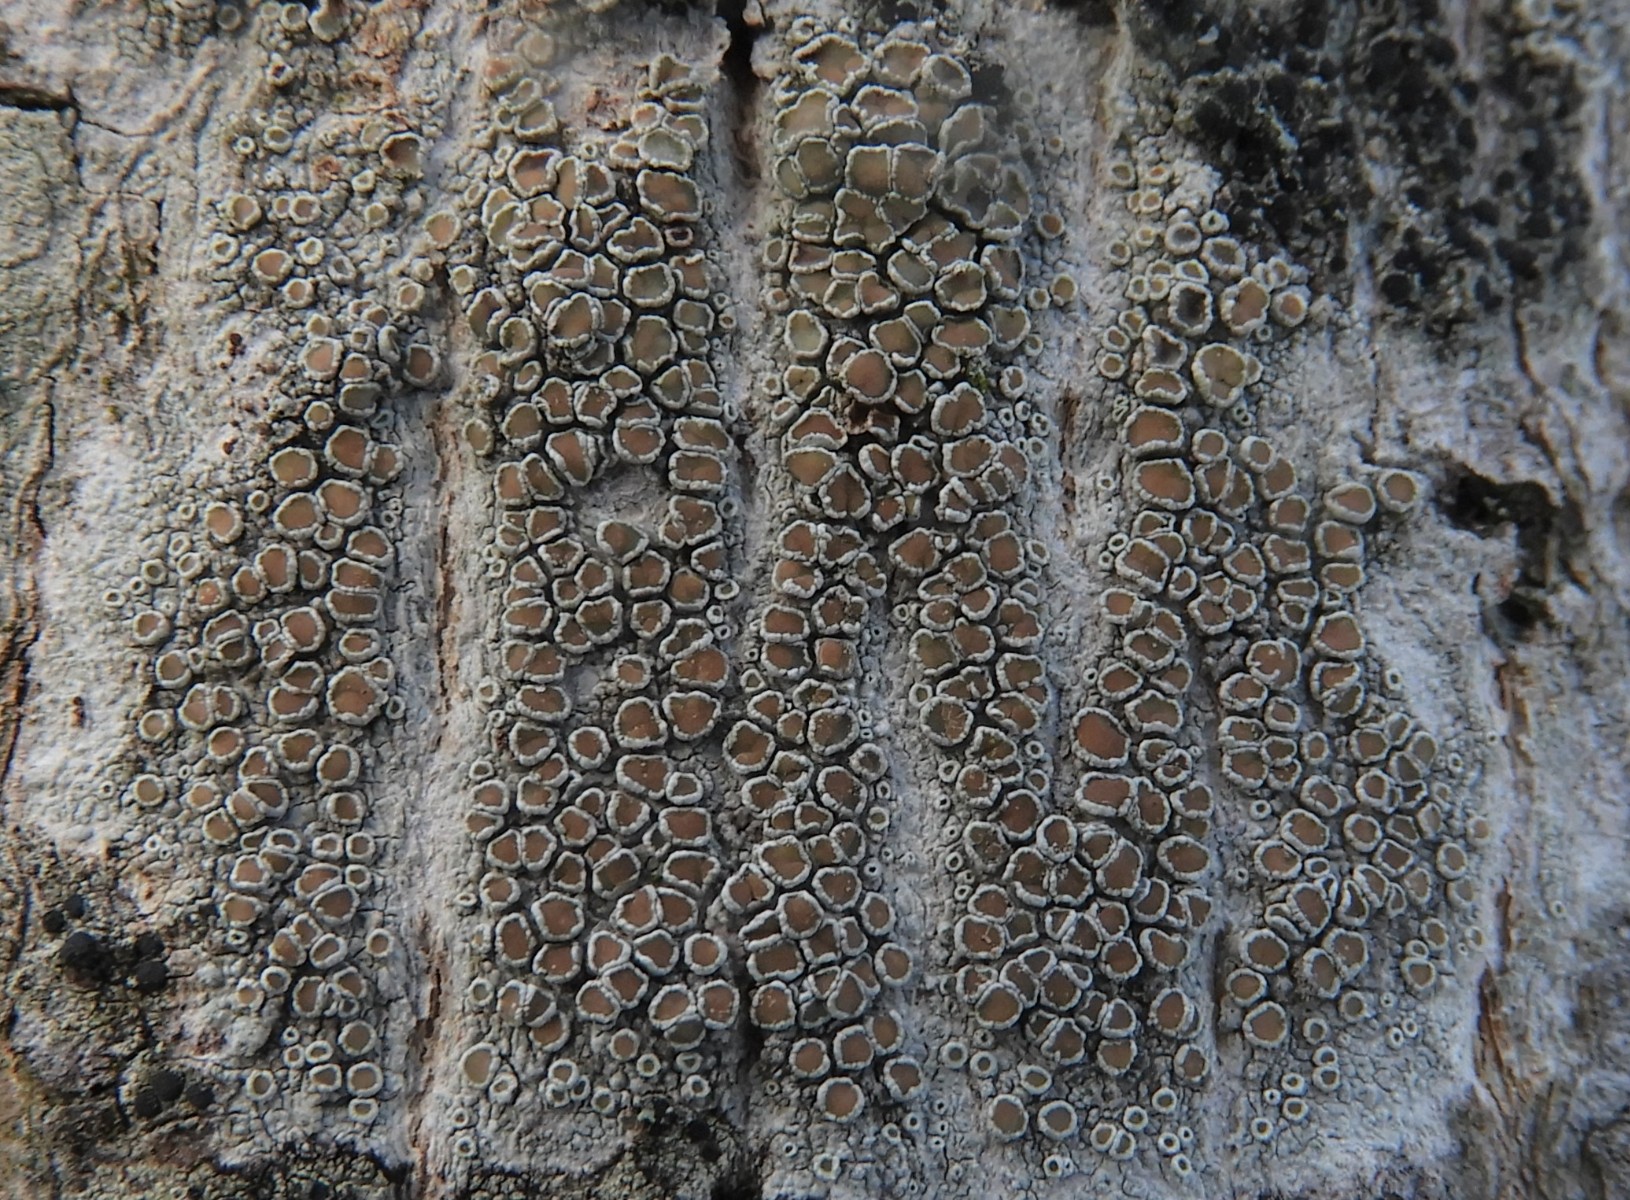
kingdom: Fungi
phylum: Ascomycota
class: Lecanoromycetes
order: Lecanorales
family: Lecanoraceae
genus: Lecanora
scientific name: Lecanora chlarotera
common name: brun kantskivelav
